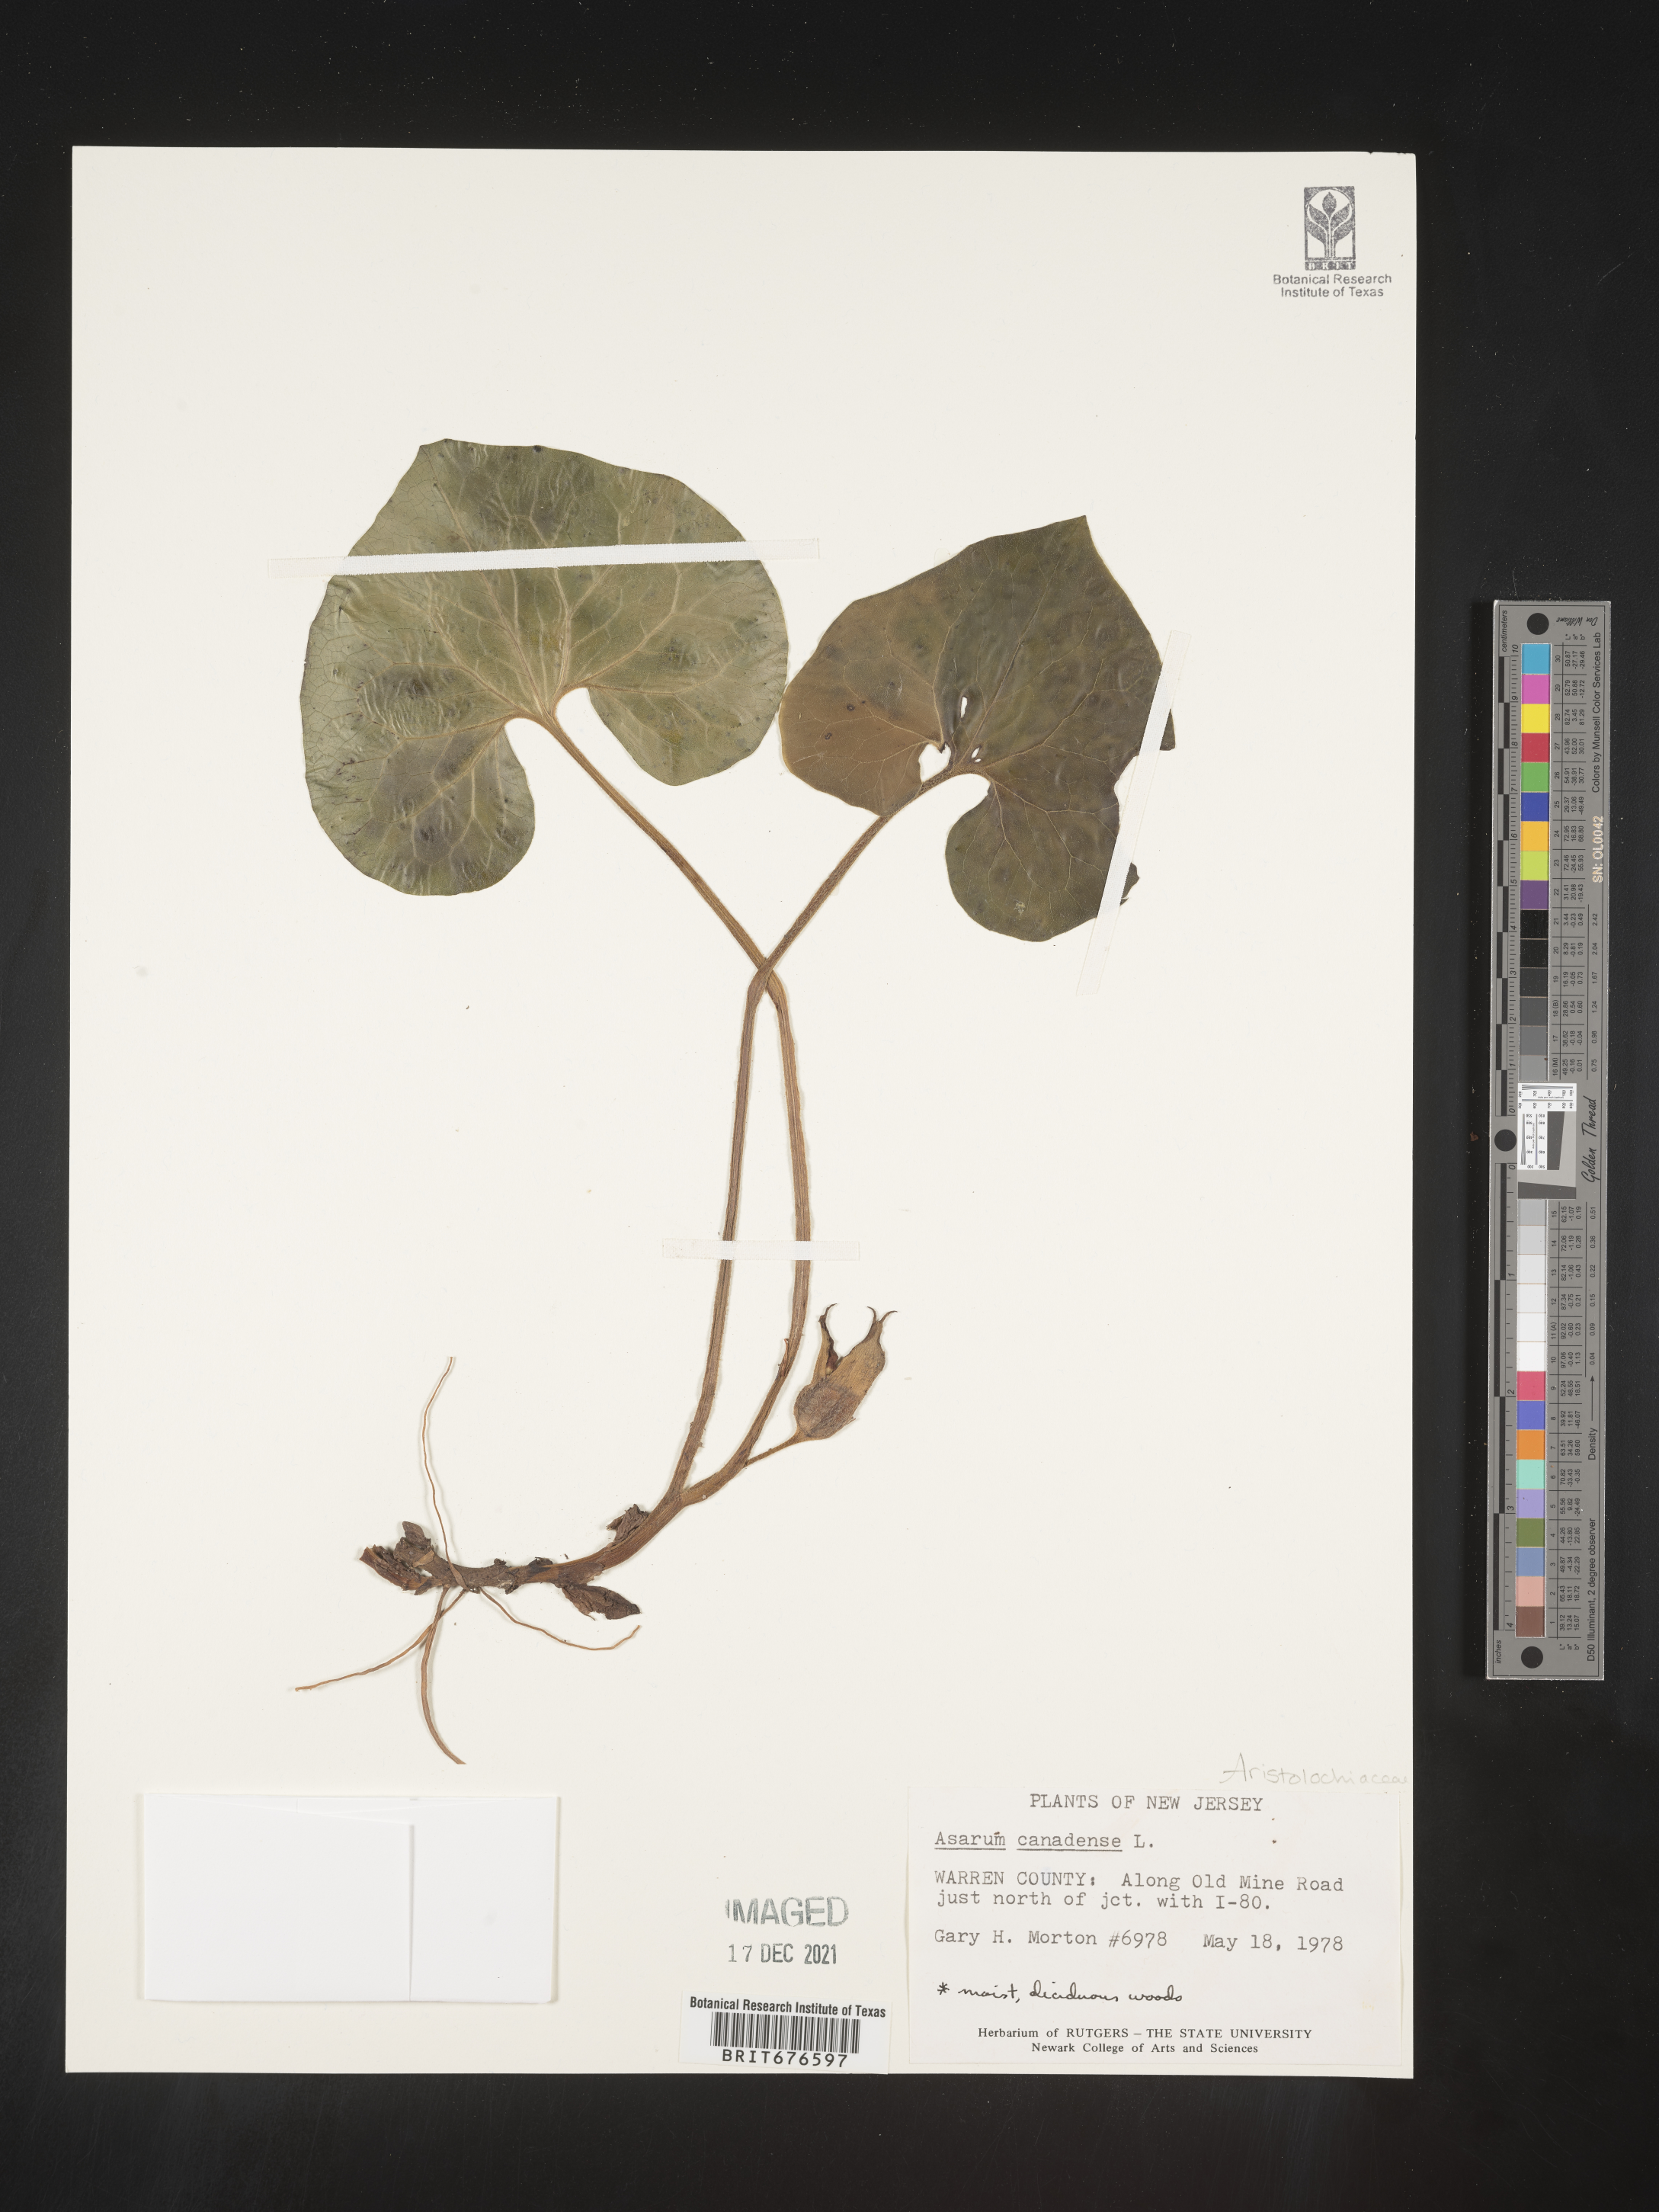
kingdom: Plantae
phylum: Tracheophyta
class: Magnoliopsida
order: Piperales
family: Aristolochiaceae
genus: Asarum
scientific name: Asarum canadense
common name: Wild ginger
